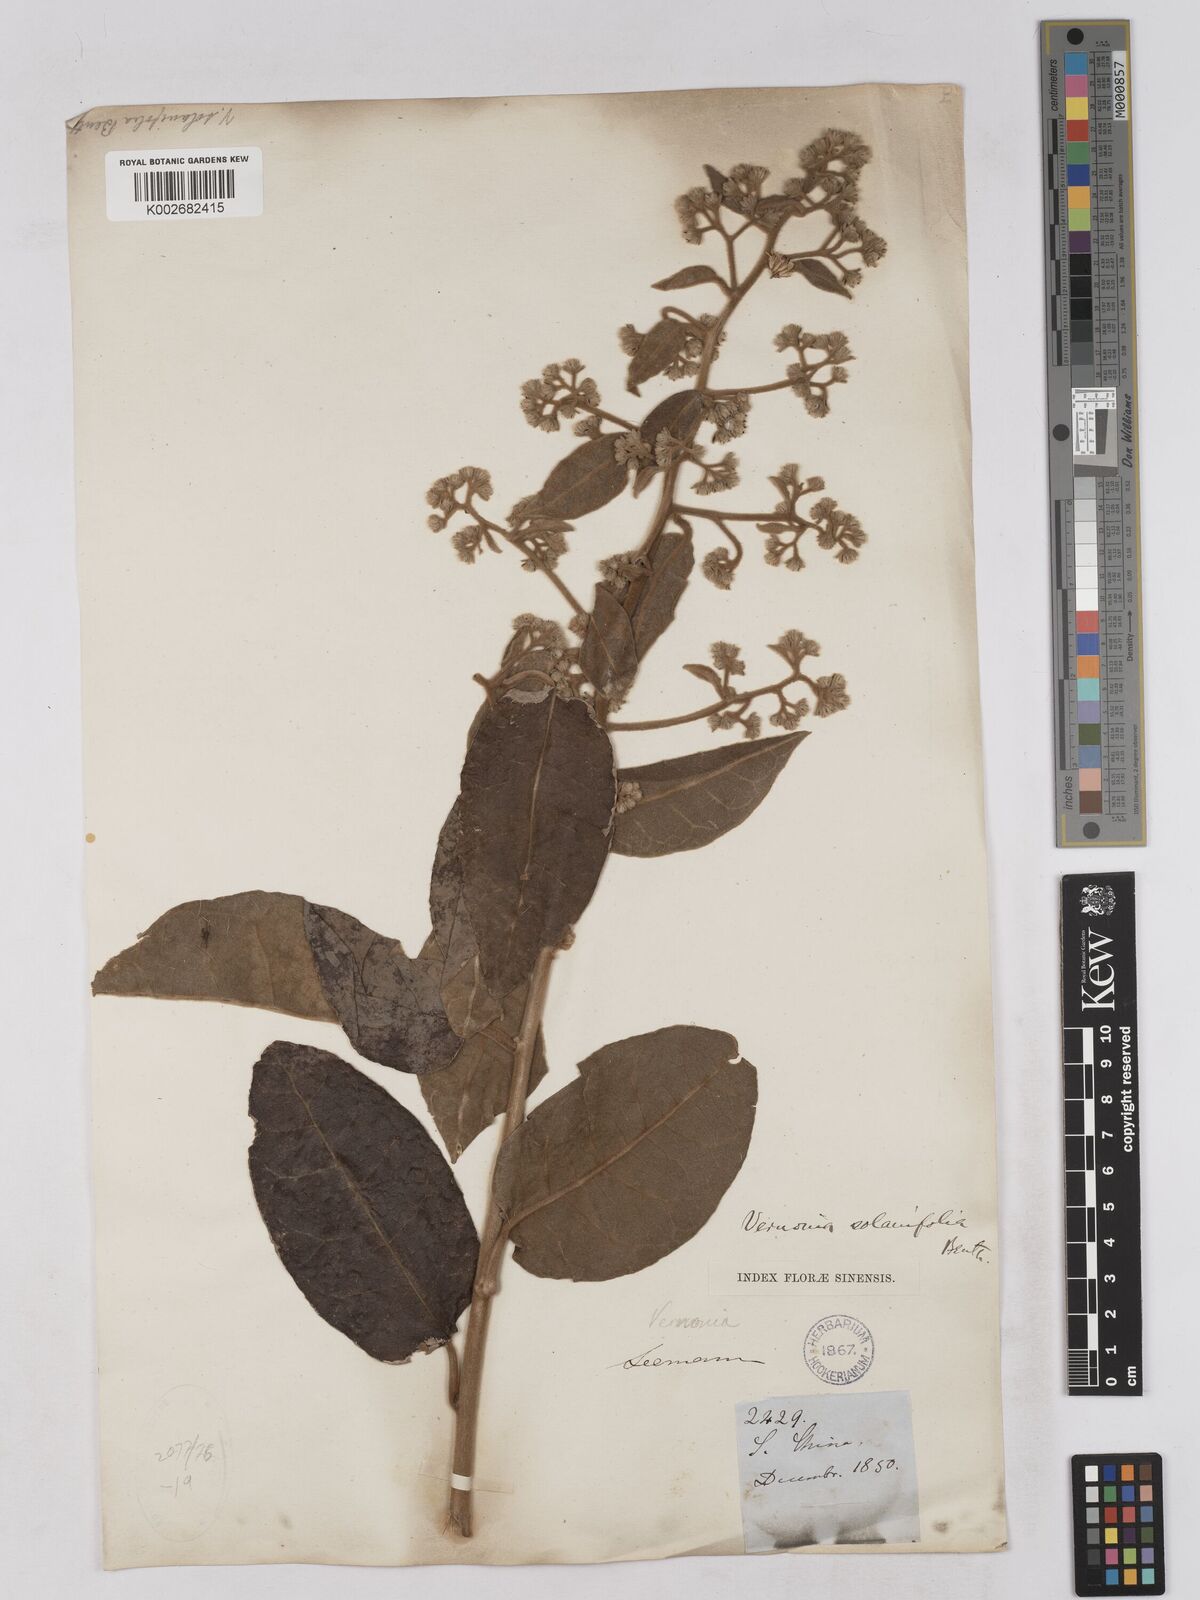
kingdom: Plantae
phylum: Tracheophyta
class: Magnoliopsida
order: Asterales
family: Asteraceae
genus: Strobocalyx
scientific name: Strobocalyx solanifolia
